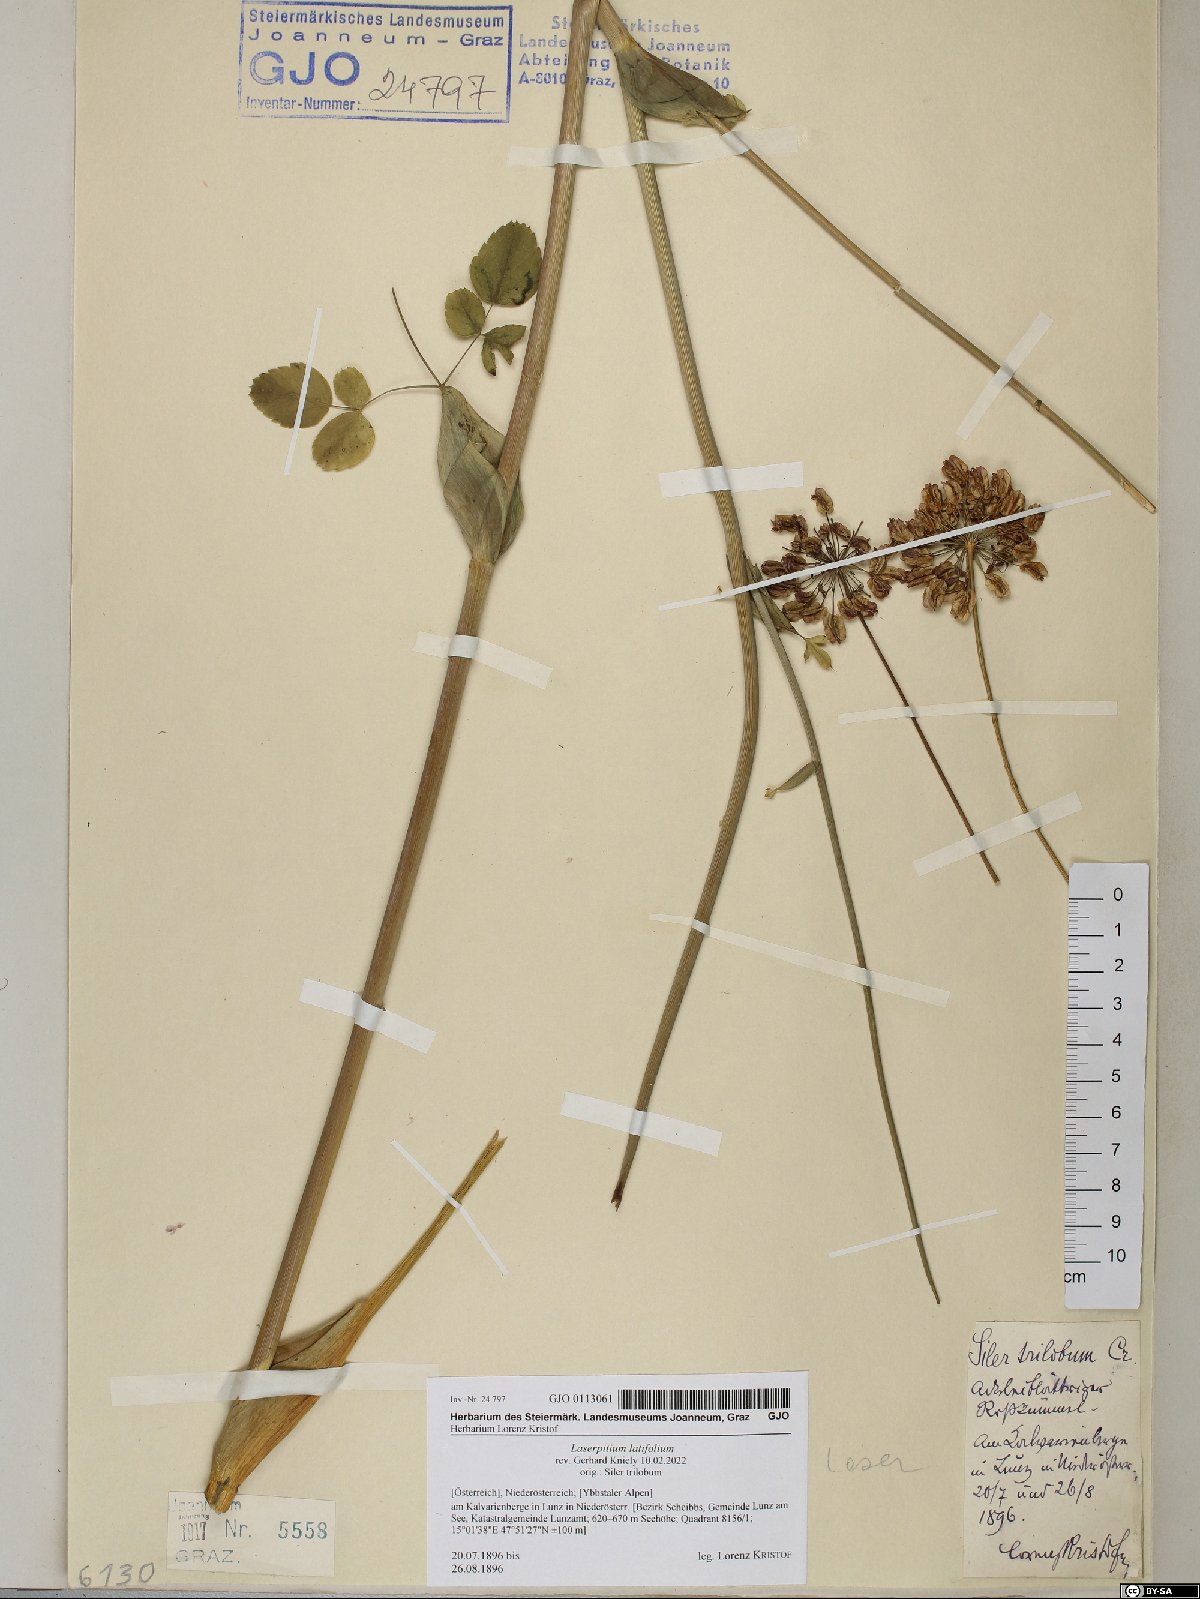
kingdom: Plantae
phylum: Tracheophyta
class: Magnoliopsida
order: Apiales
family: Apiaceae
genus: Laserpitium
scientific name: Laserpitium latifolium
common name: Broadleaf sermountain
